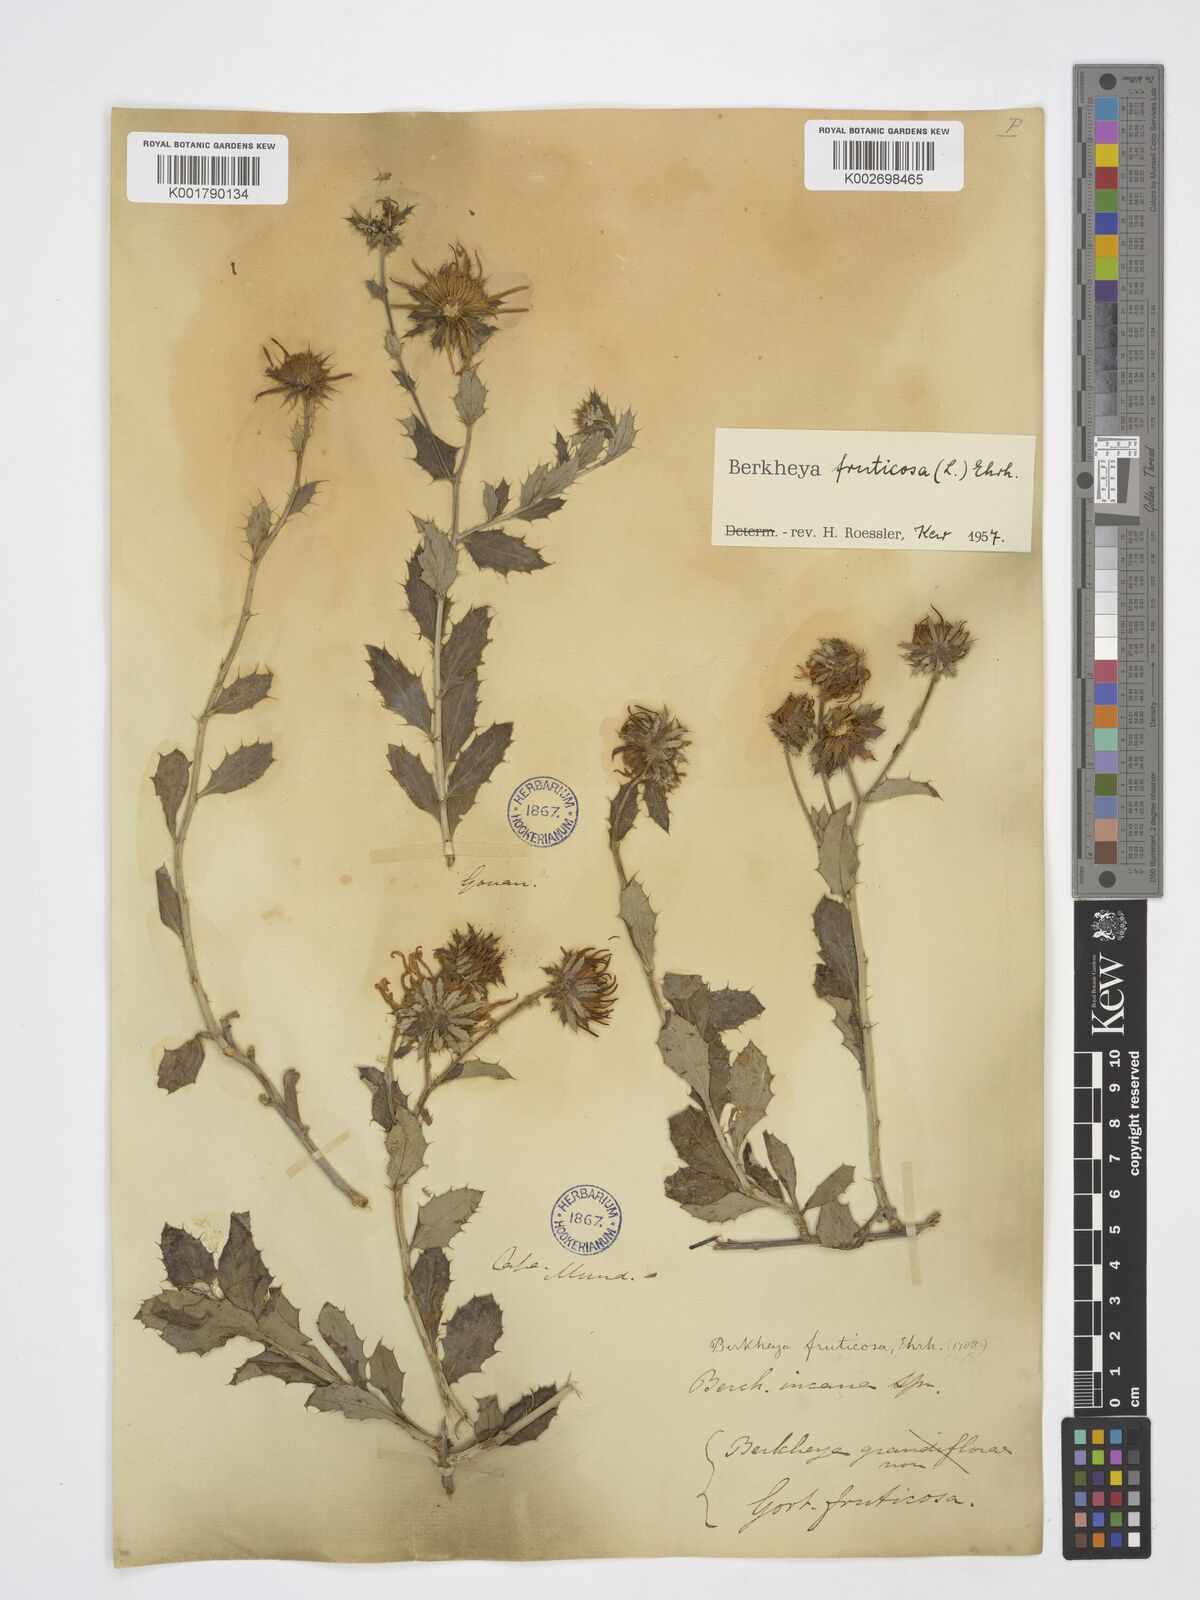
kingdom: Plantae
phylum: Tracheophyta
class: Magnoliopsida
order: Asterales
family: Asteraceae
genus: Berkheya
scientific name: Berkheya fruticosa
